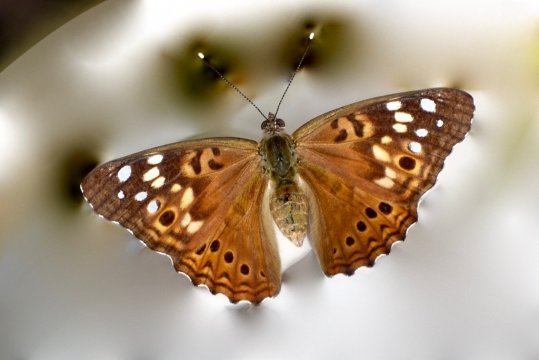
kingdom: Animalia
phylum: Arthropoda
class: Insecta
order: Lepidoptera
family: Nymphalidae
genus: Asterocampa
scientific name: Asterocampa celtis
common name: Hackberry Emperor
